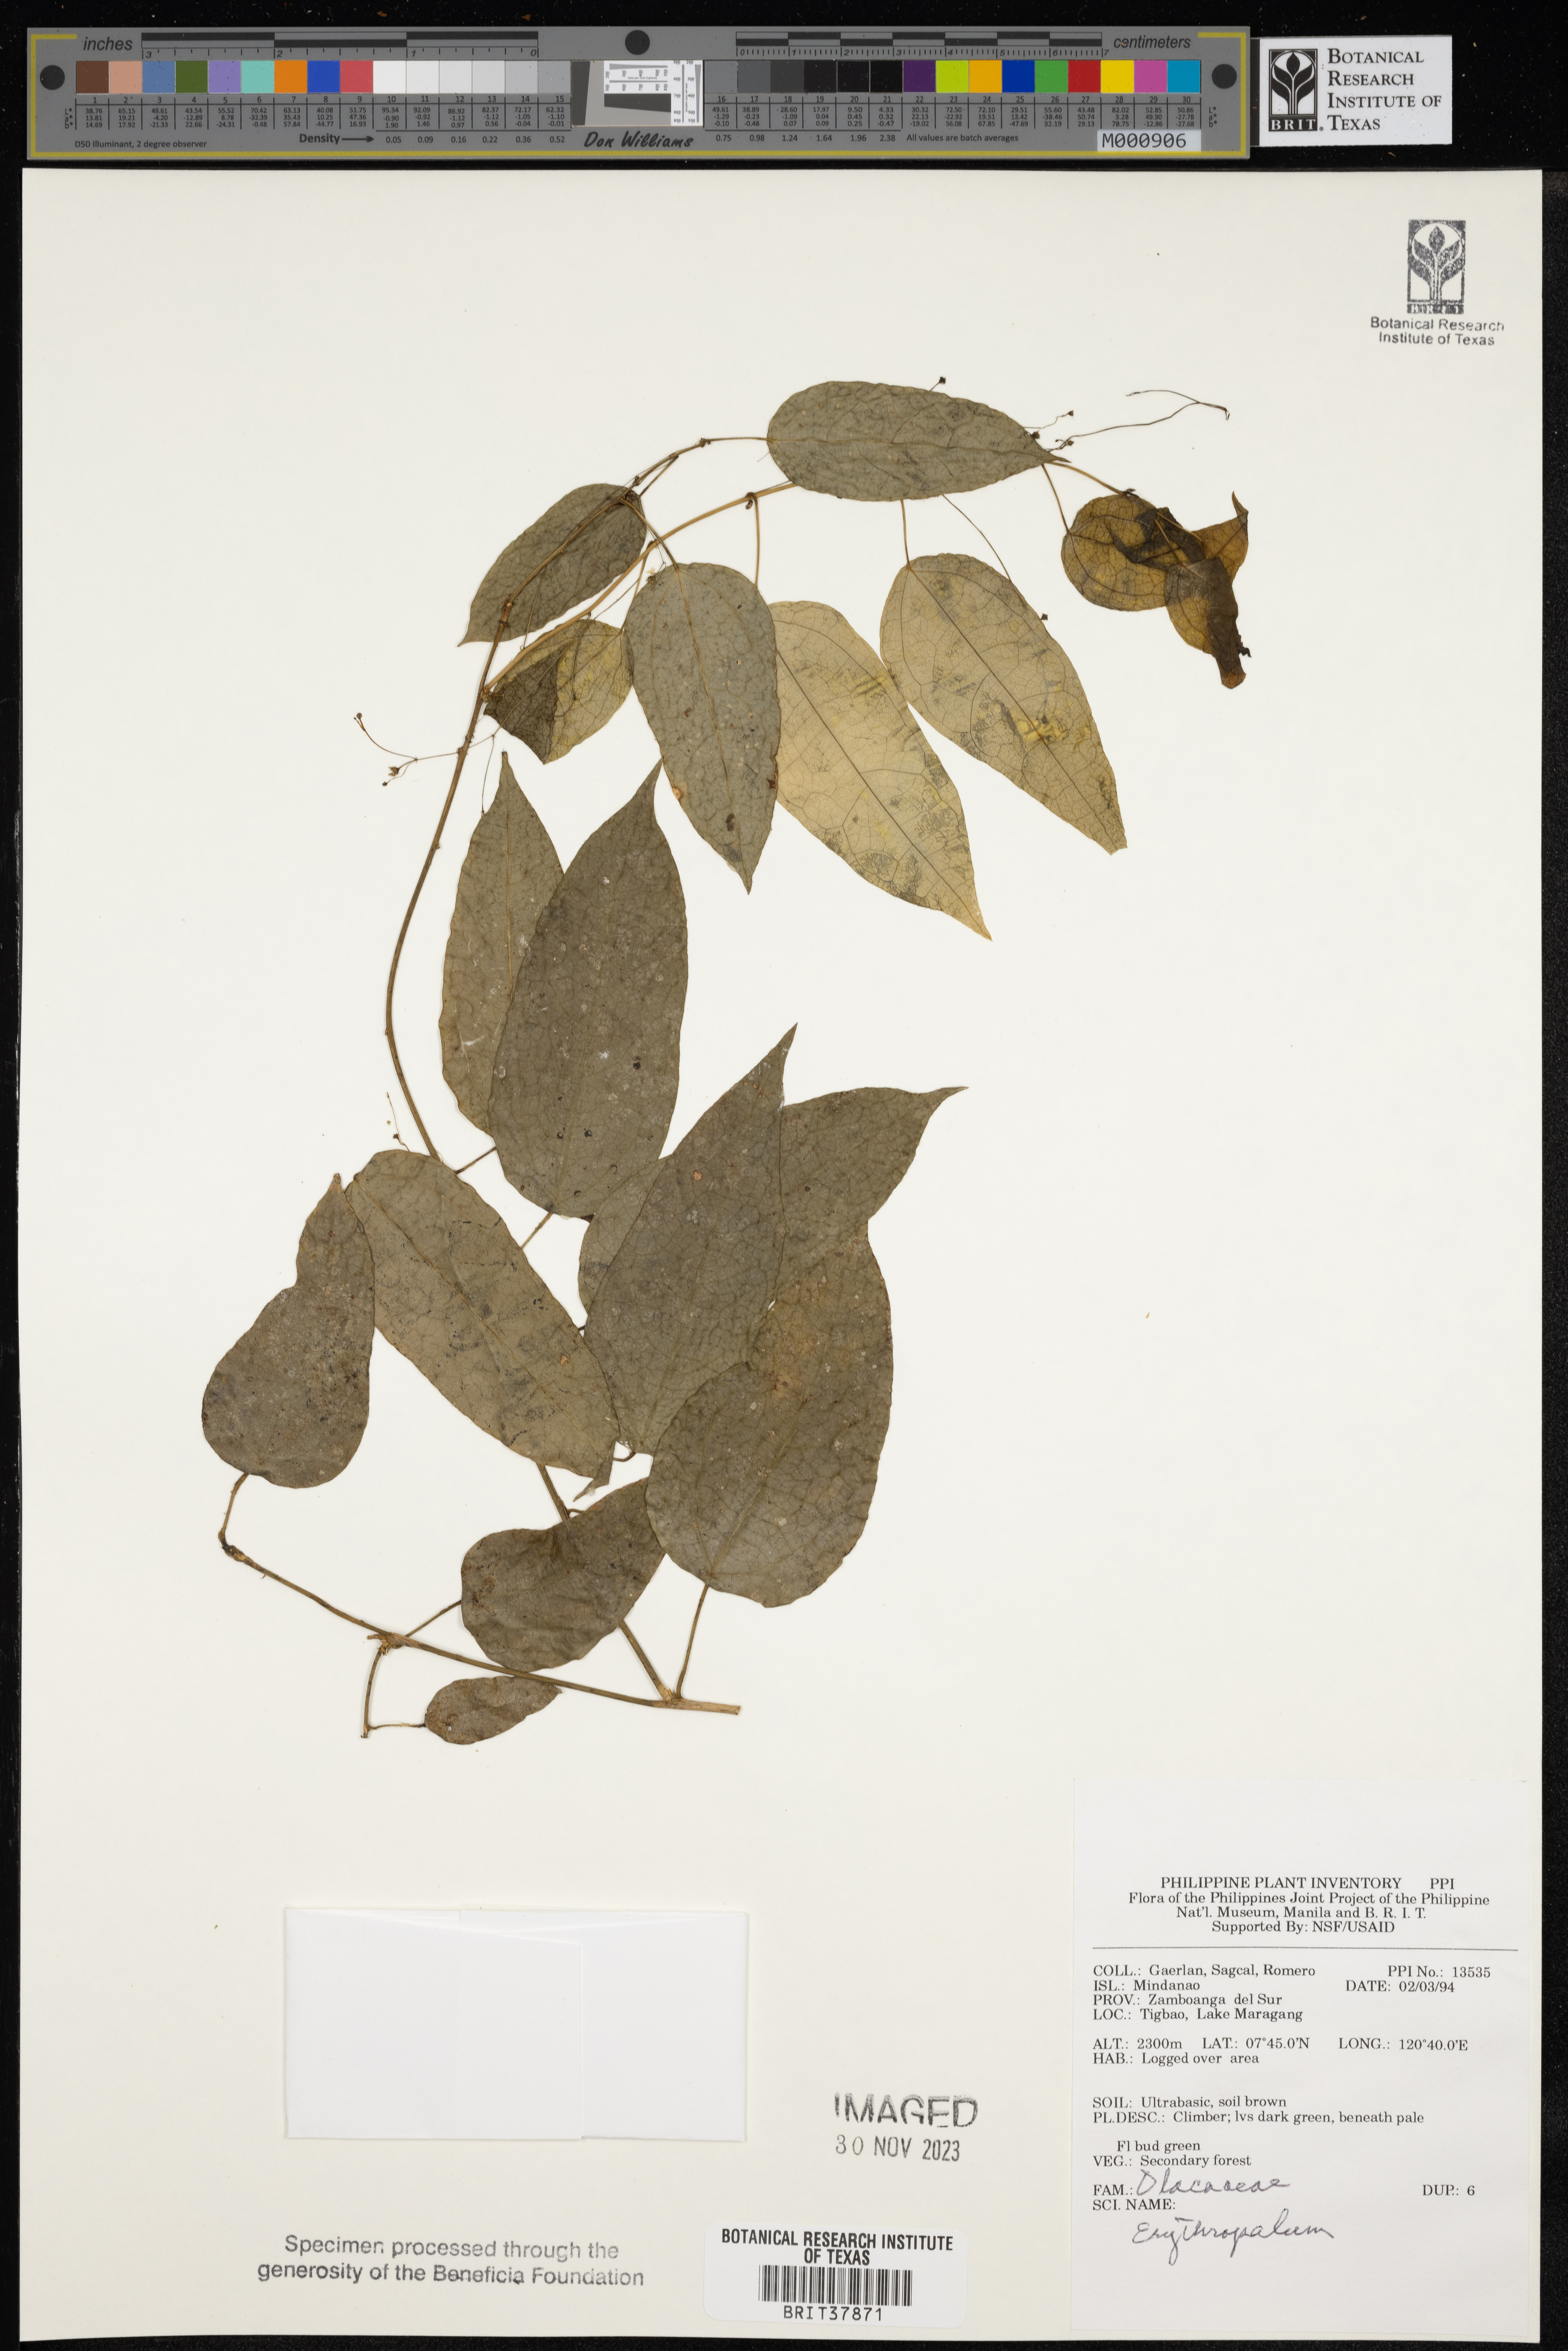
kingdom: Plantae
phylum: Tracheophyta
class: Magnoliopsida
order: Santalales
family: Erythropalaceae
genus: Erythropalum
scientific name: Erythropalum
